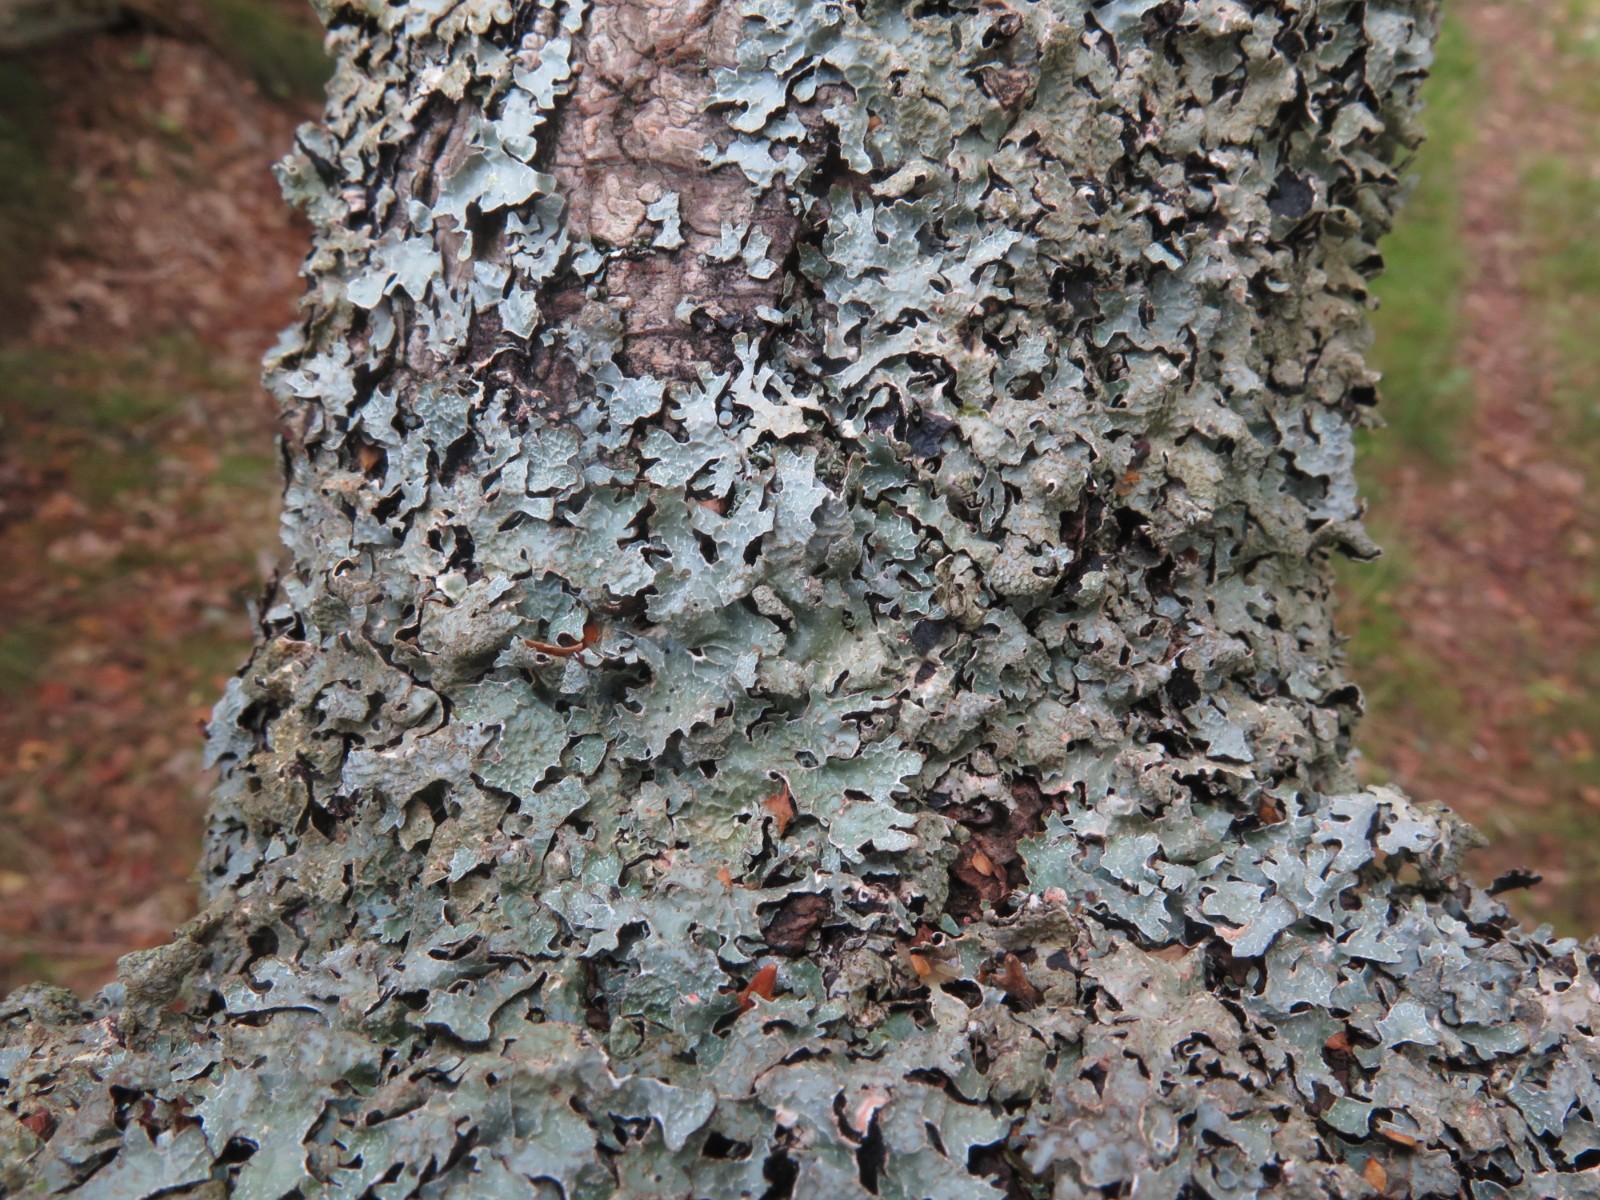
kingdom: Fungi
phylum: Ascomycota
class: Lecanoromycetes
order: Lecanorales
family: Parmeliaceae
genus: Parmelia
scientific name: Parmelia sulcata
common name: rynket skållav
